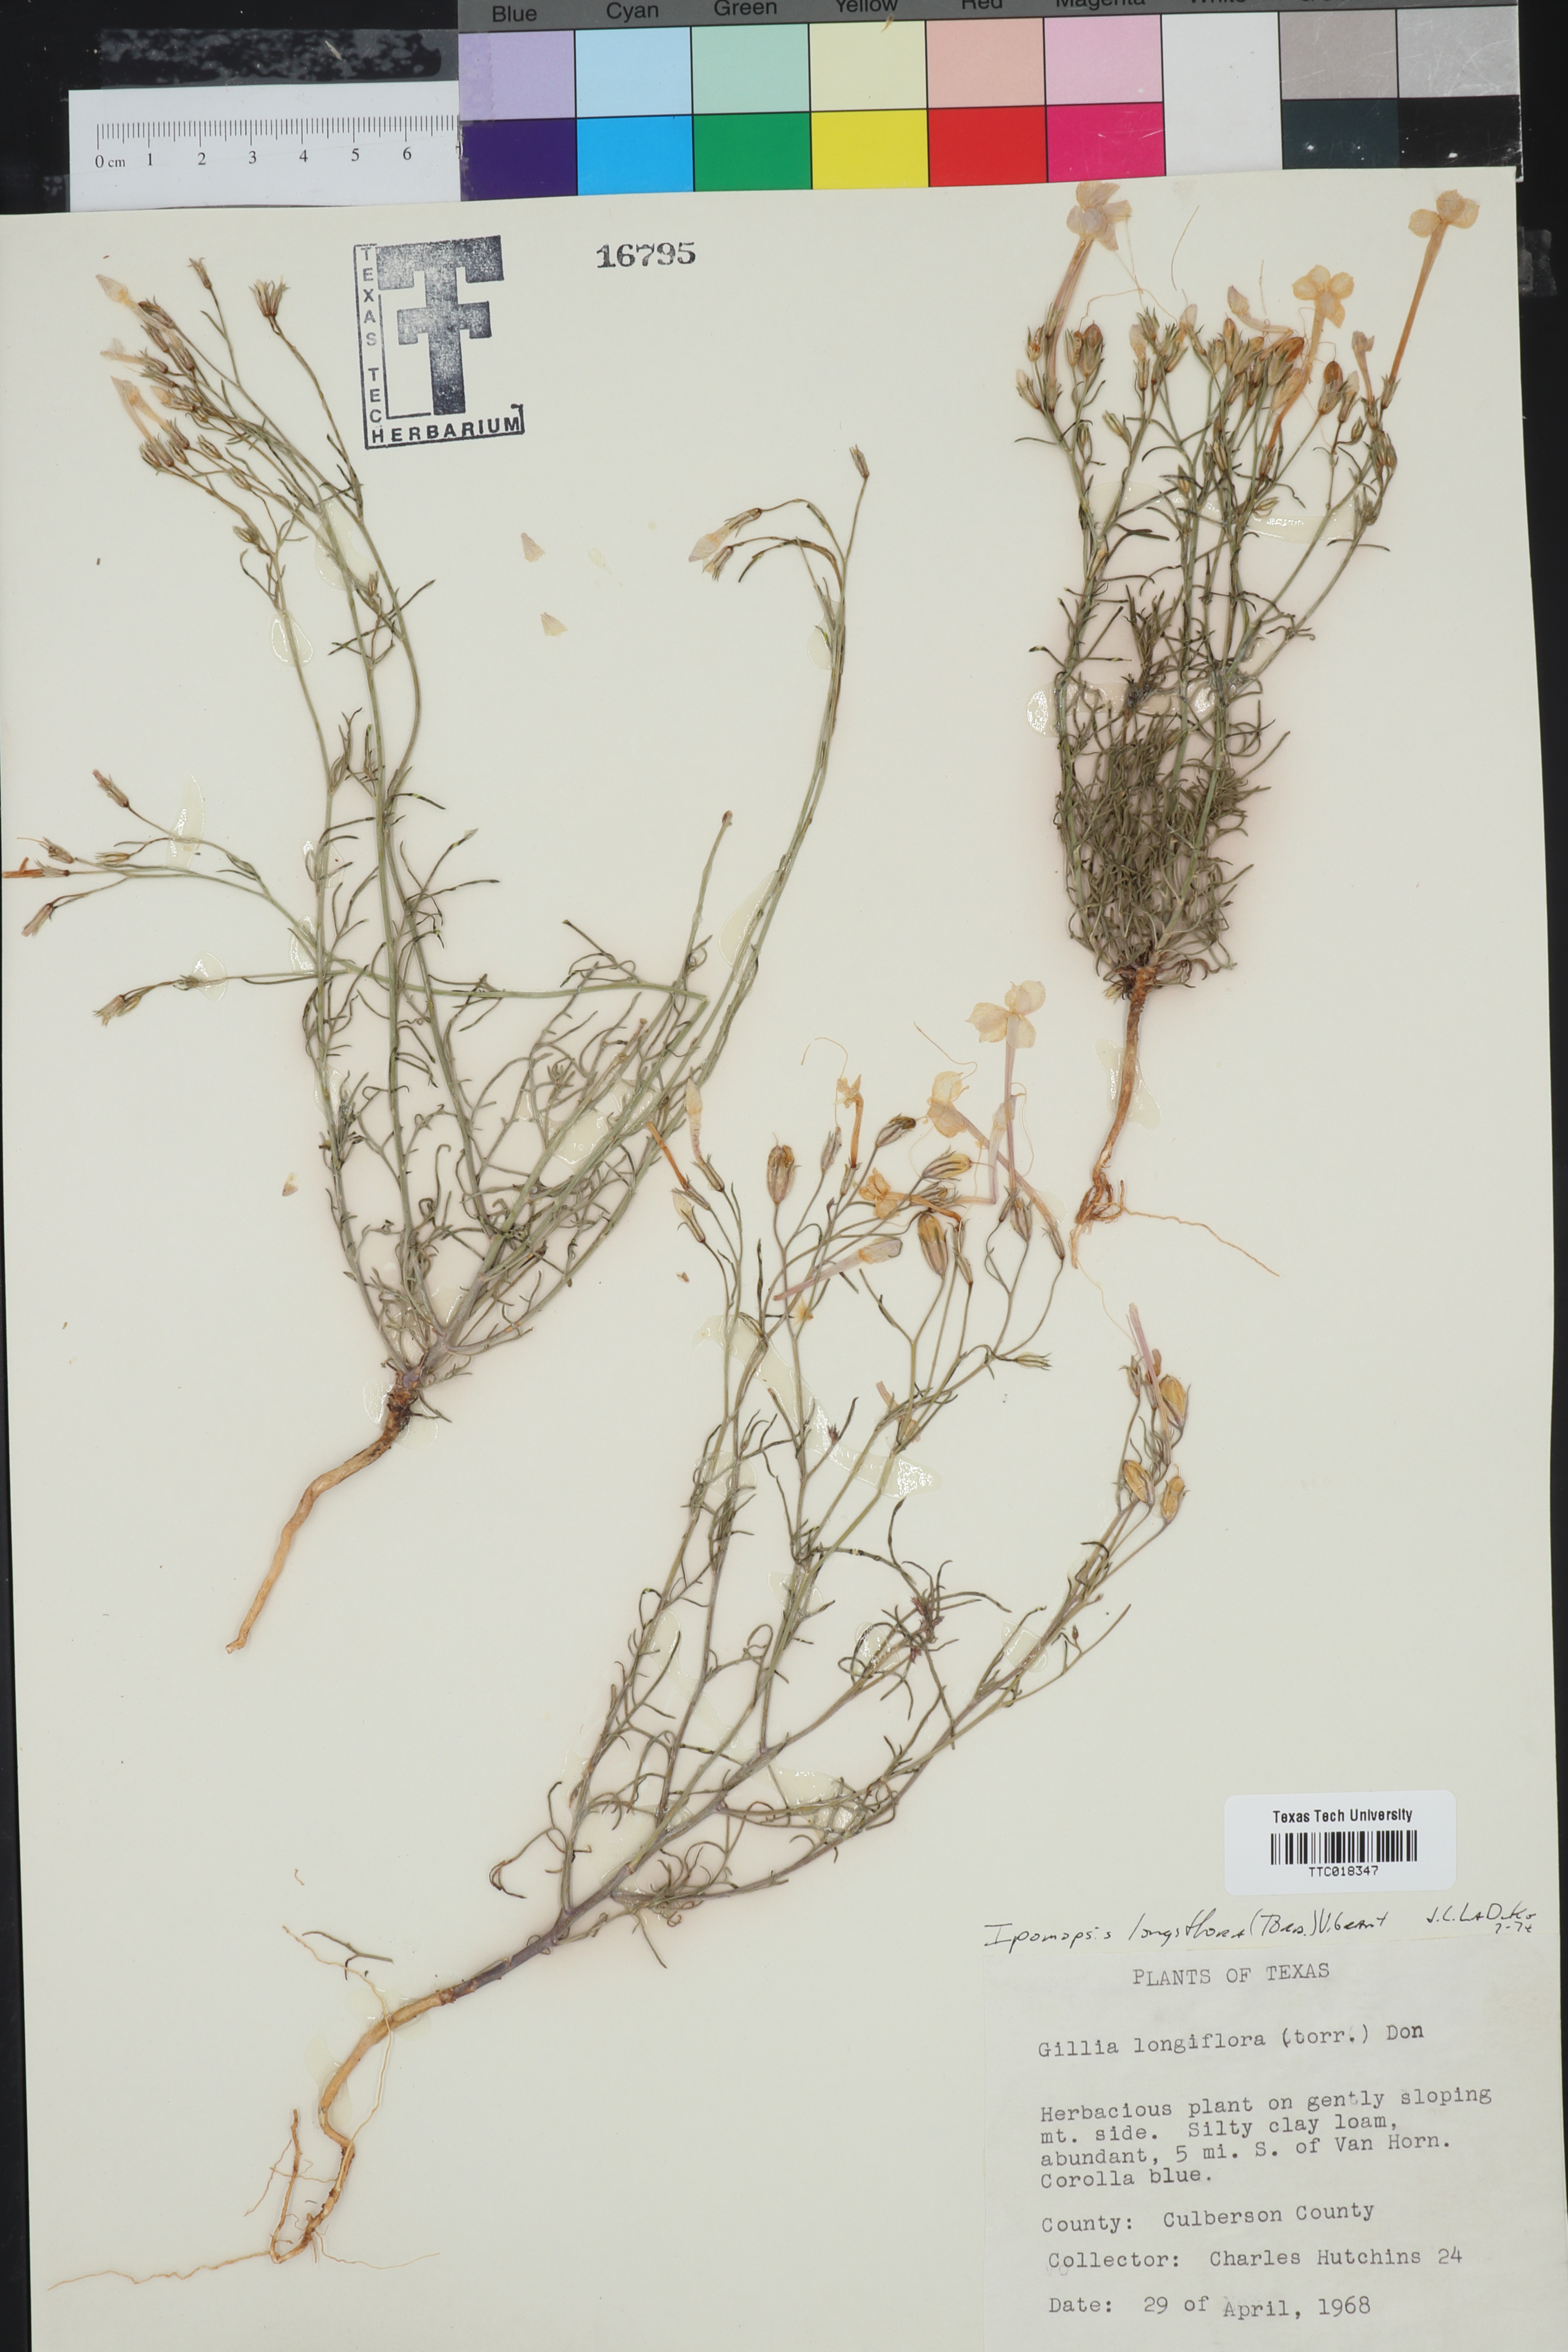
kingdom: Plantae
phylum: Tracheophyta
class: Magnoliopsida
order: Ericales
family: Polemoniaceae
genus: Ipomopsis
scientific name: Ipomopsis longiflora
